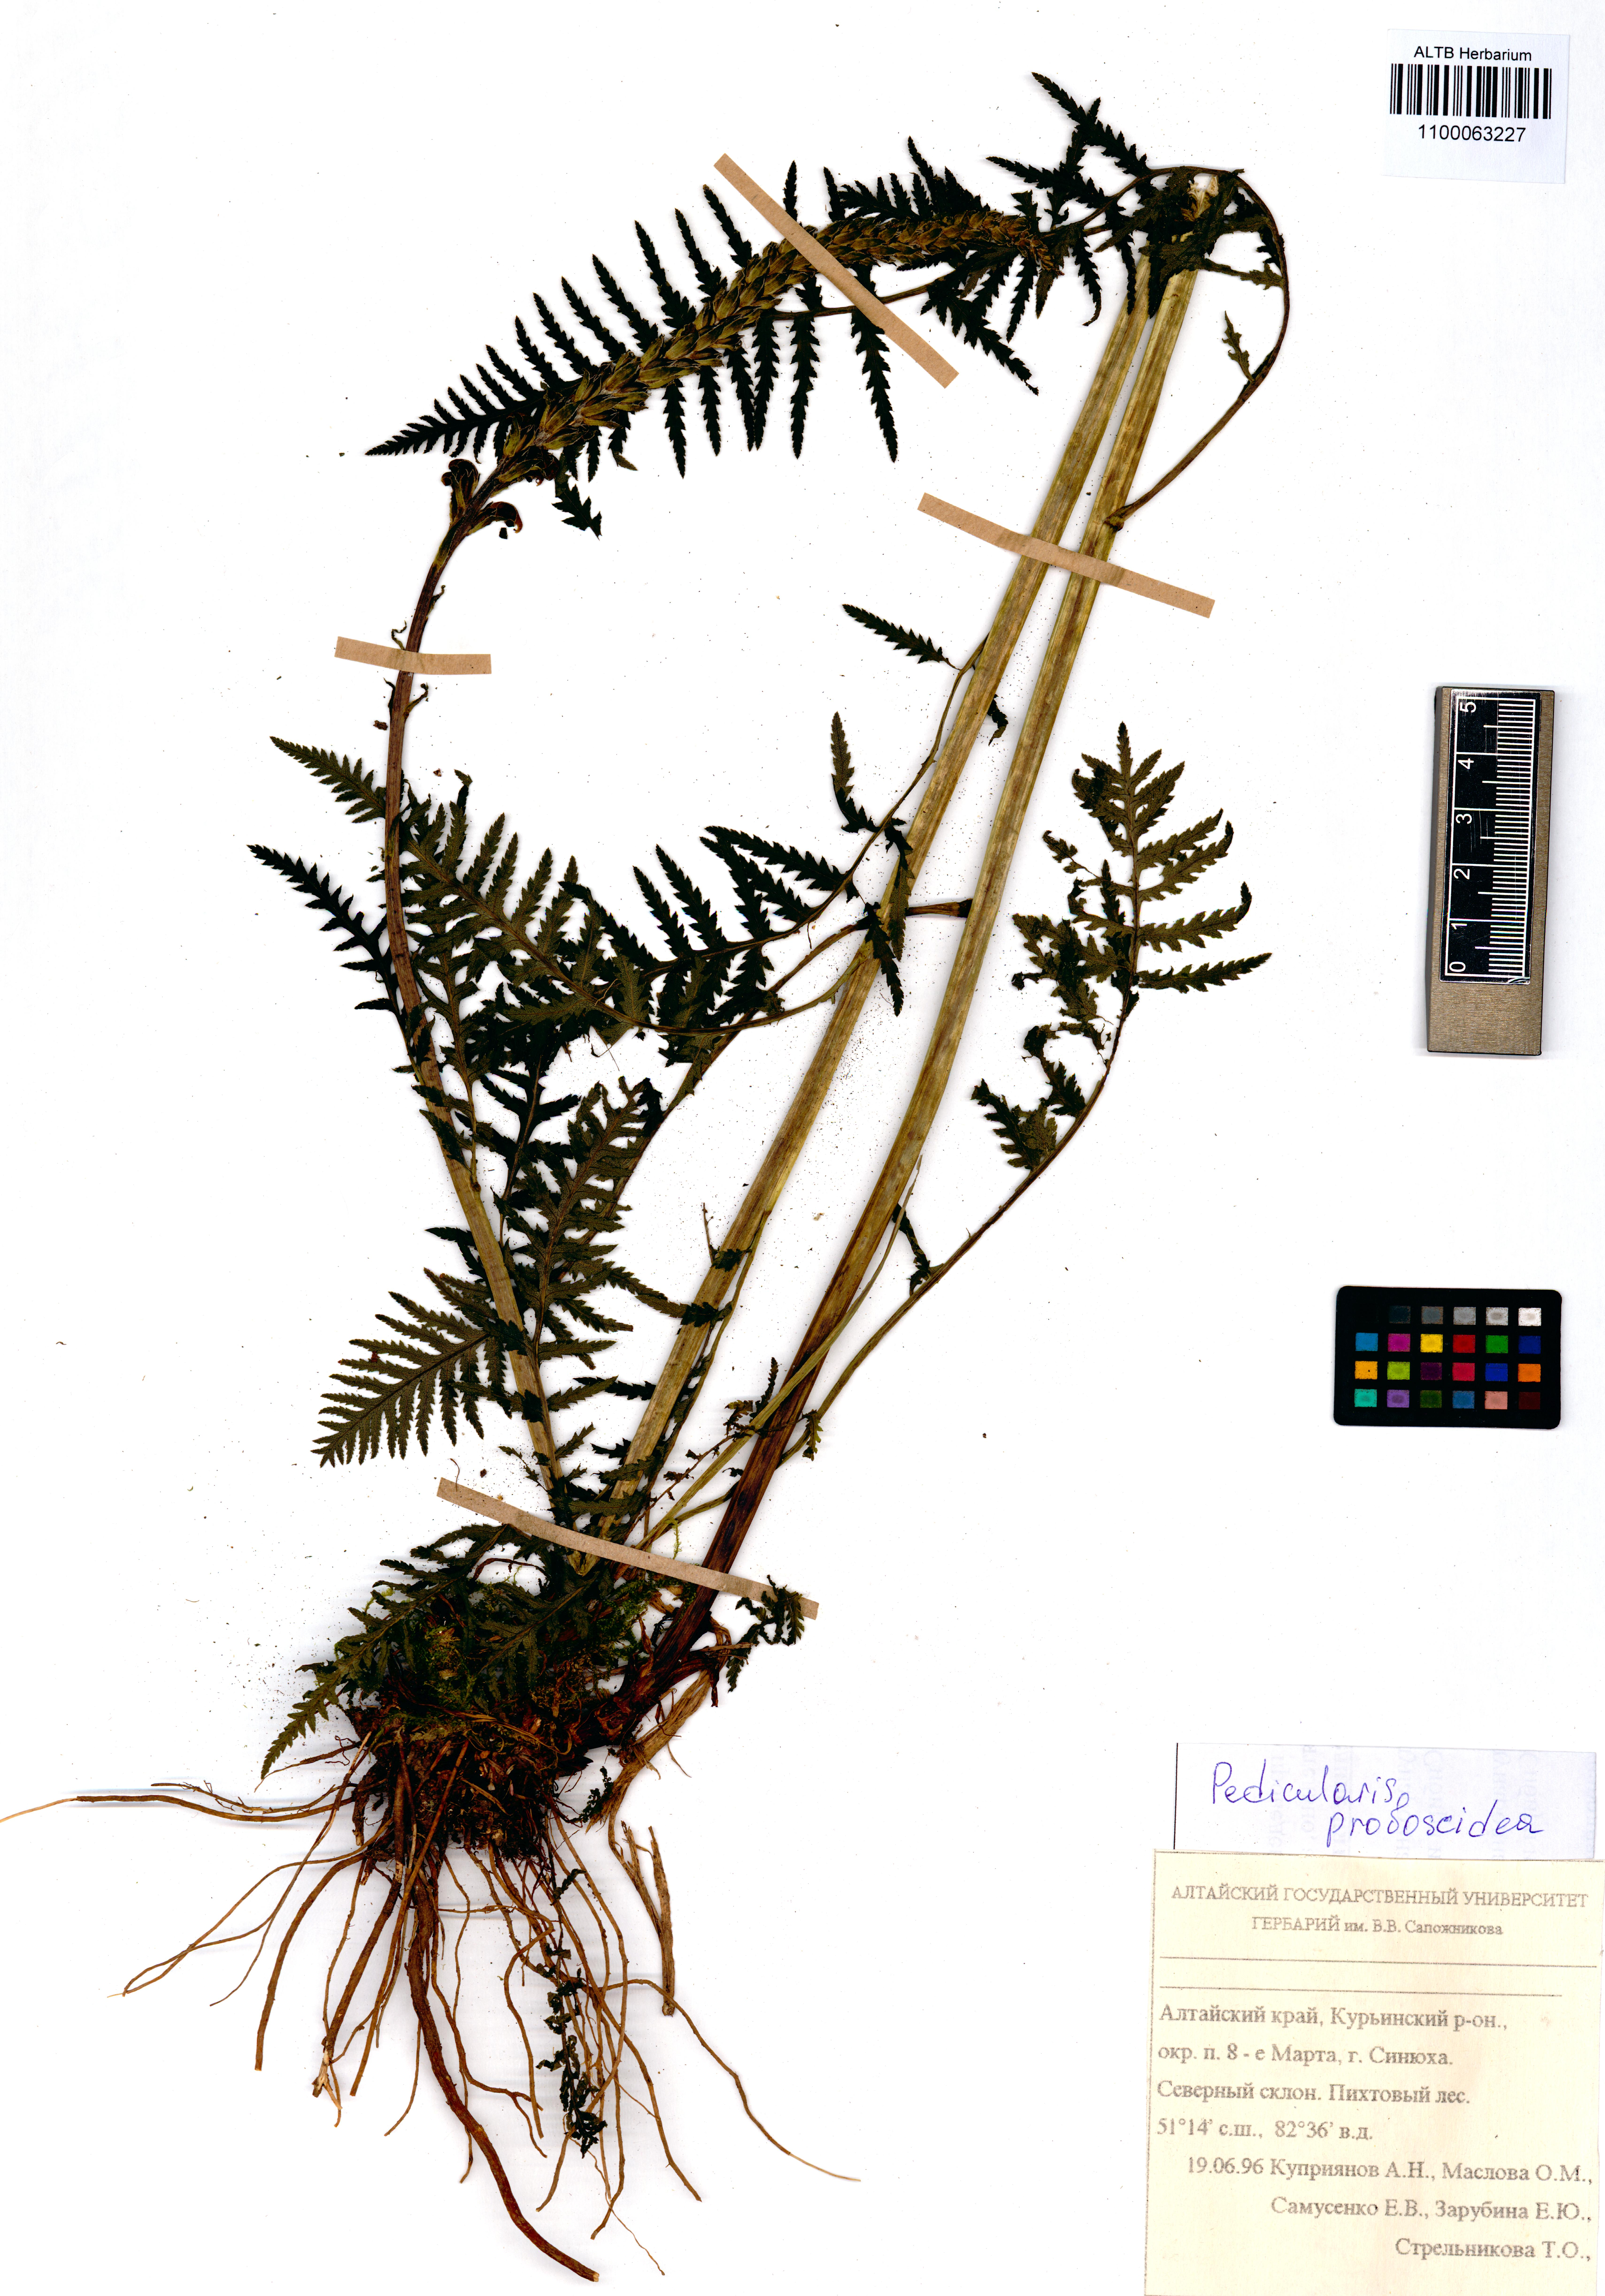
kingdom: Plantae
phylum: Tracheophyta
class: Magnoliopsida
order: Lamiales
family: Orobanchaceae
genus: Pedicularis
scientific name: Pedicularis cenisia
